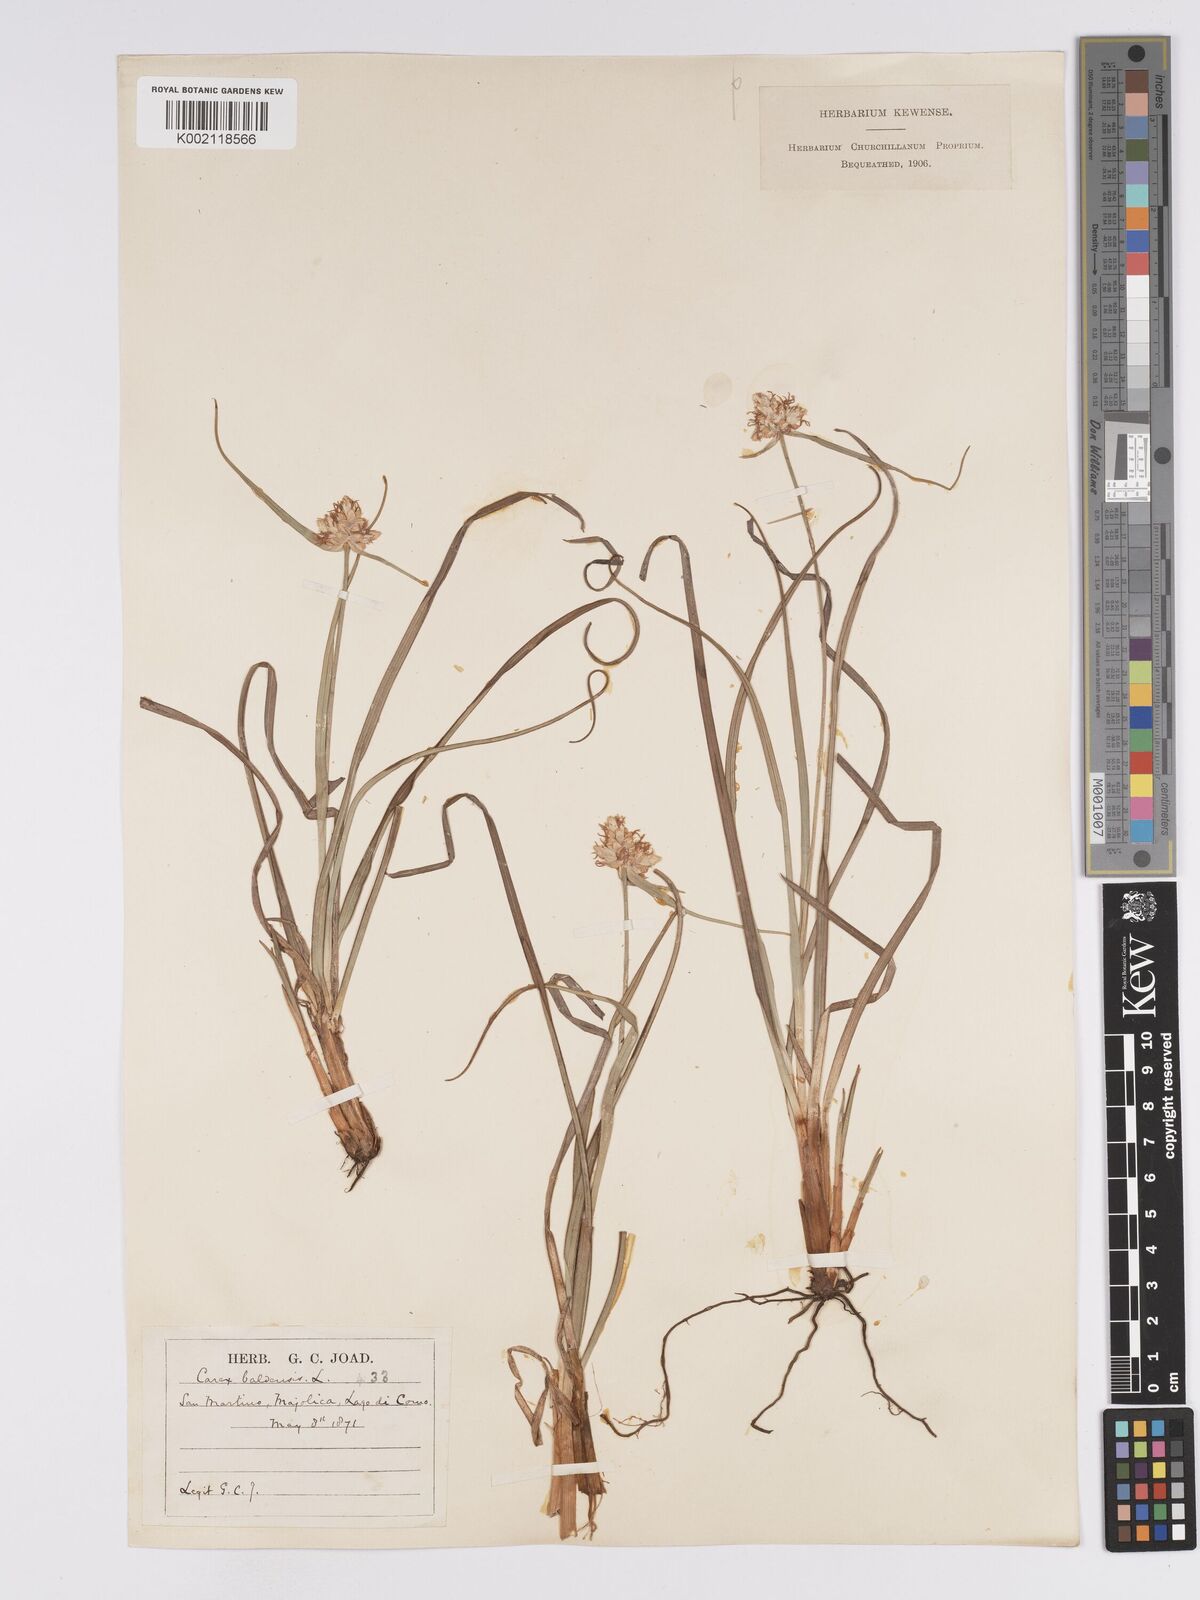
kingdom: Plantae
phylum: Tracheophyta
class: Liliopsida
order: Poales
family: Cyperaceae
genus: Carex
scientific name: Carex baldensis
